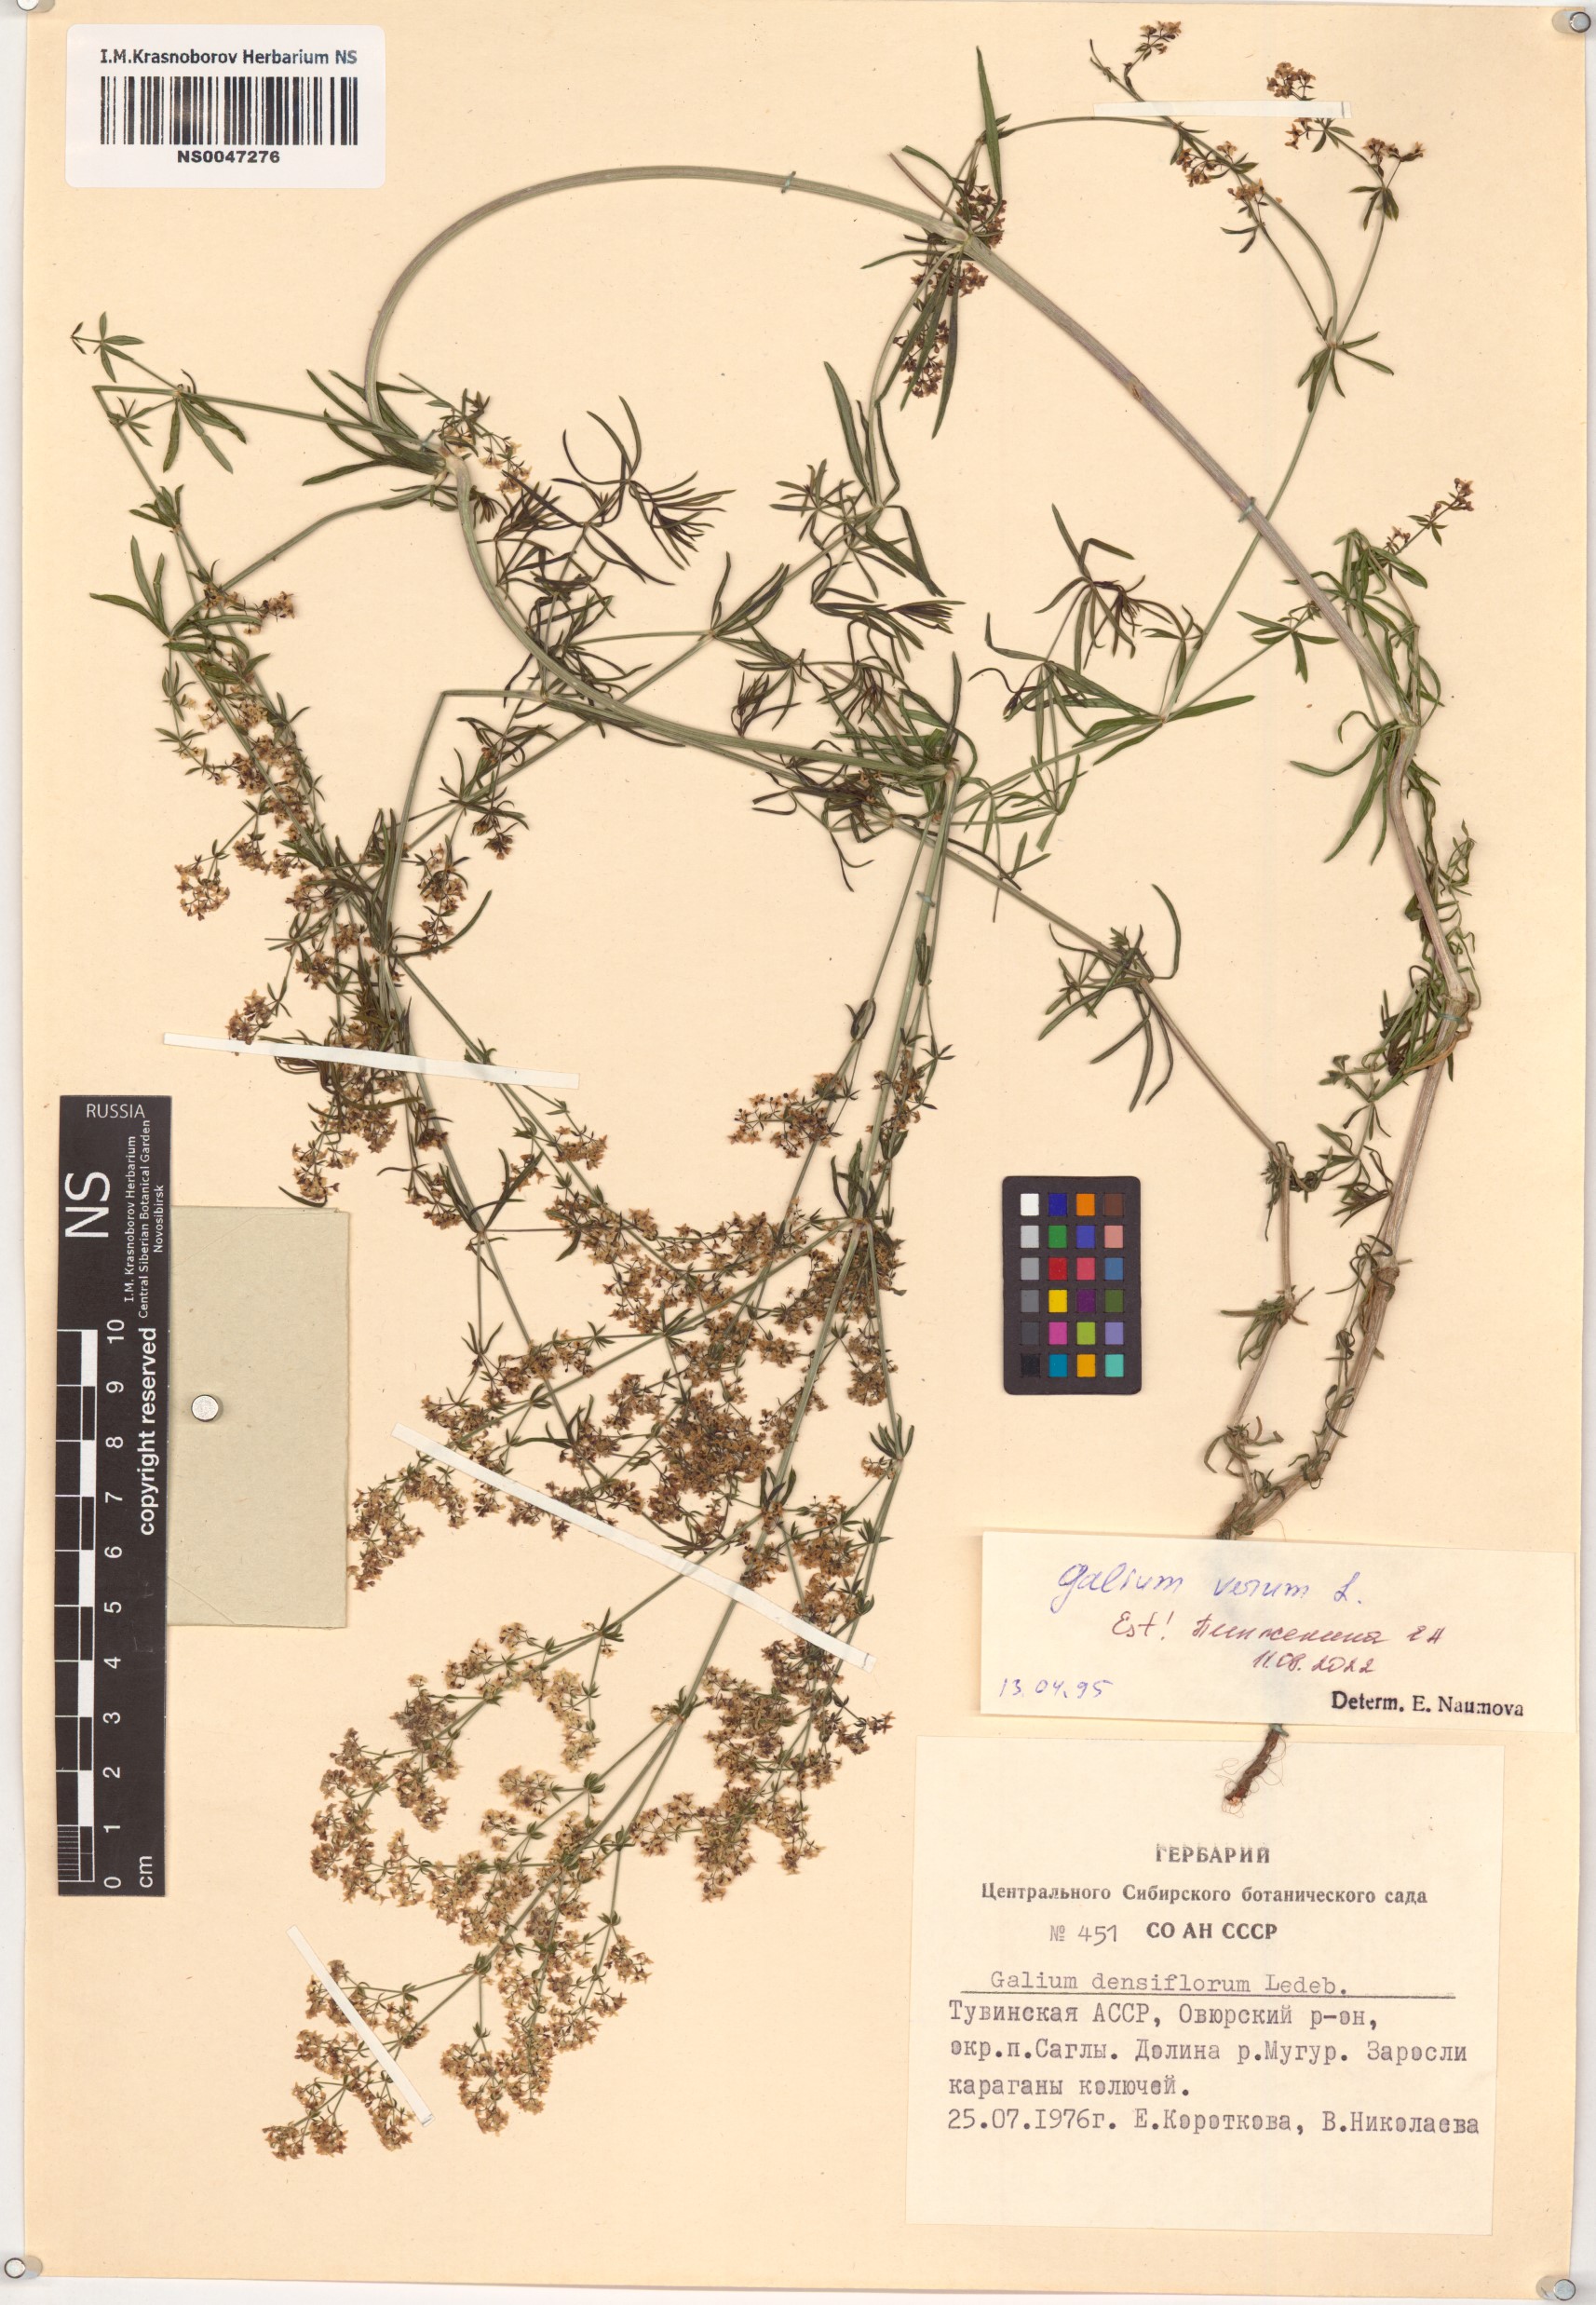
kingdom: Plantae
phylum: Tracheophyta
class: Magnoliopsida
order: Gentianales
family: Rubiaceae
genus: Galium
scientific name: Galium verum
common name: Lady's bedstraw
